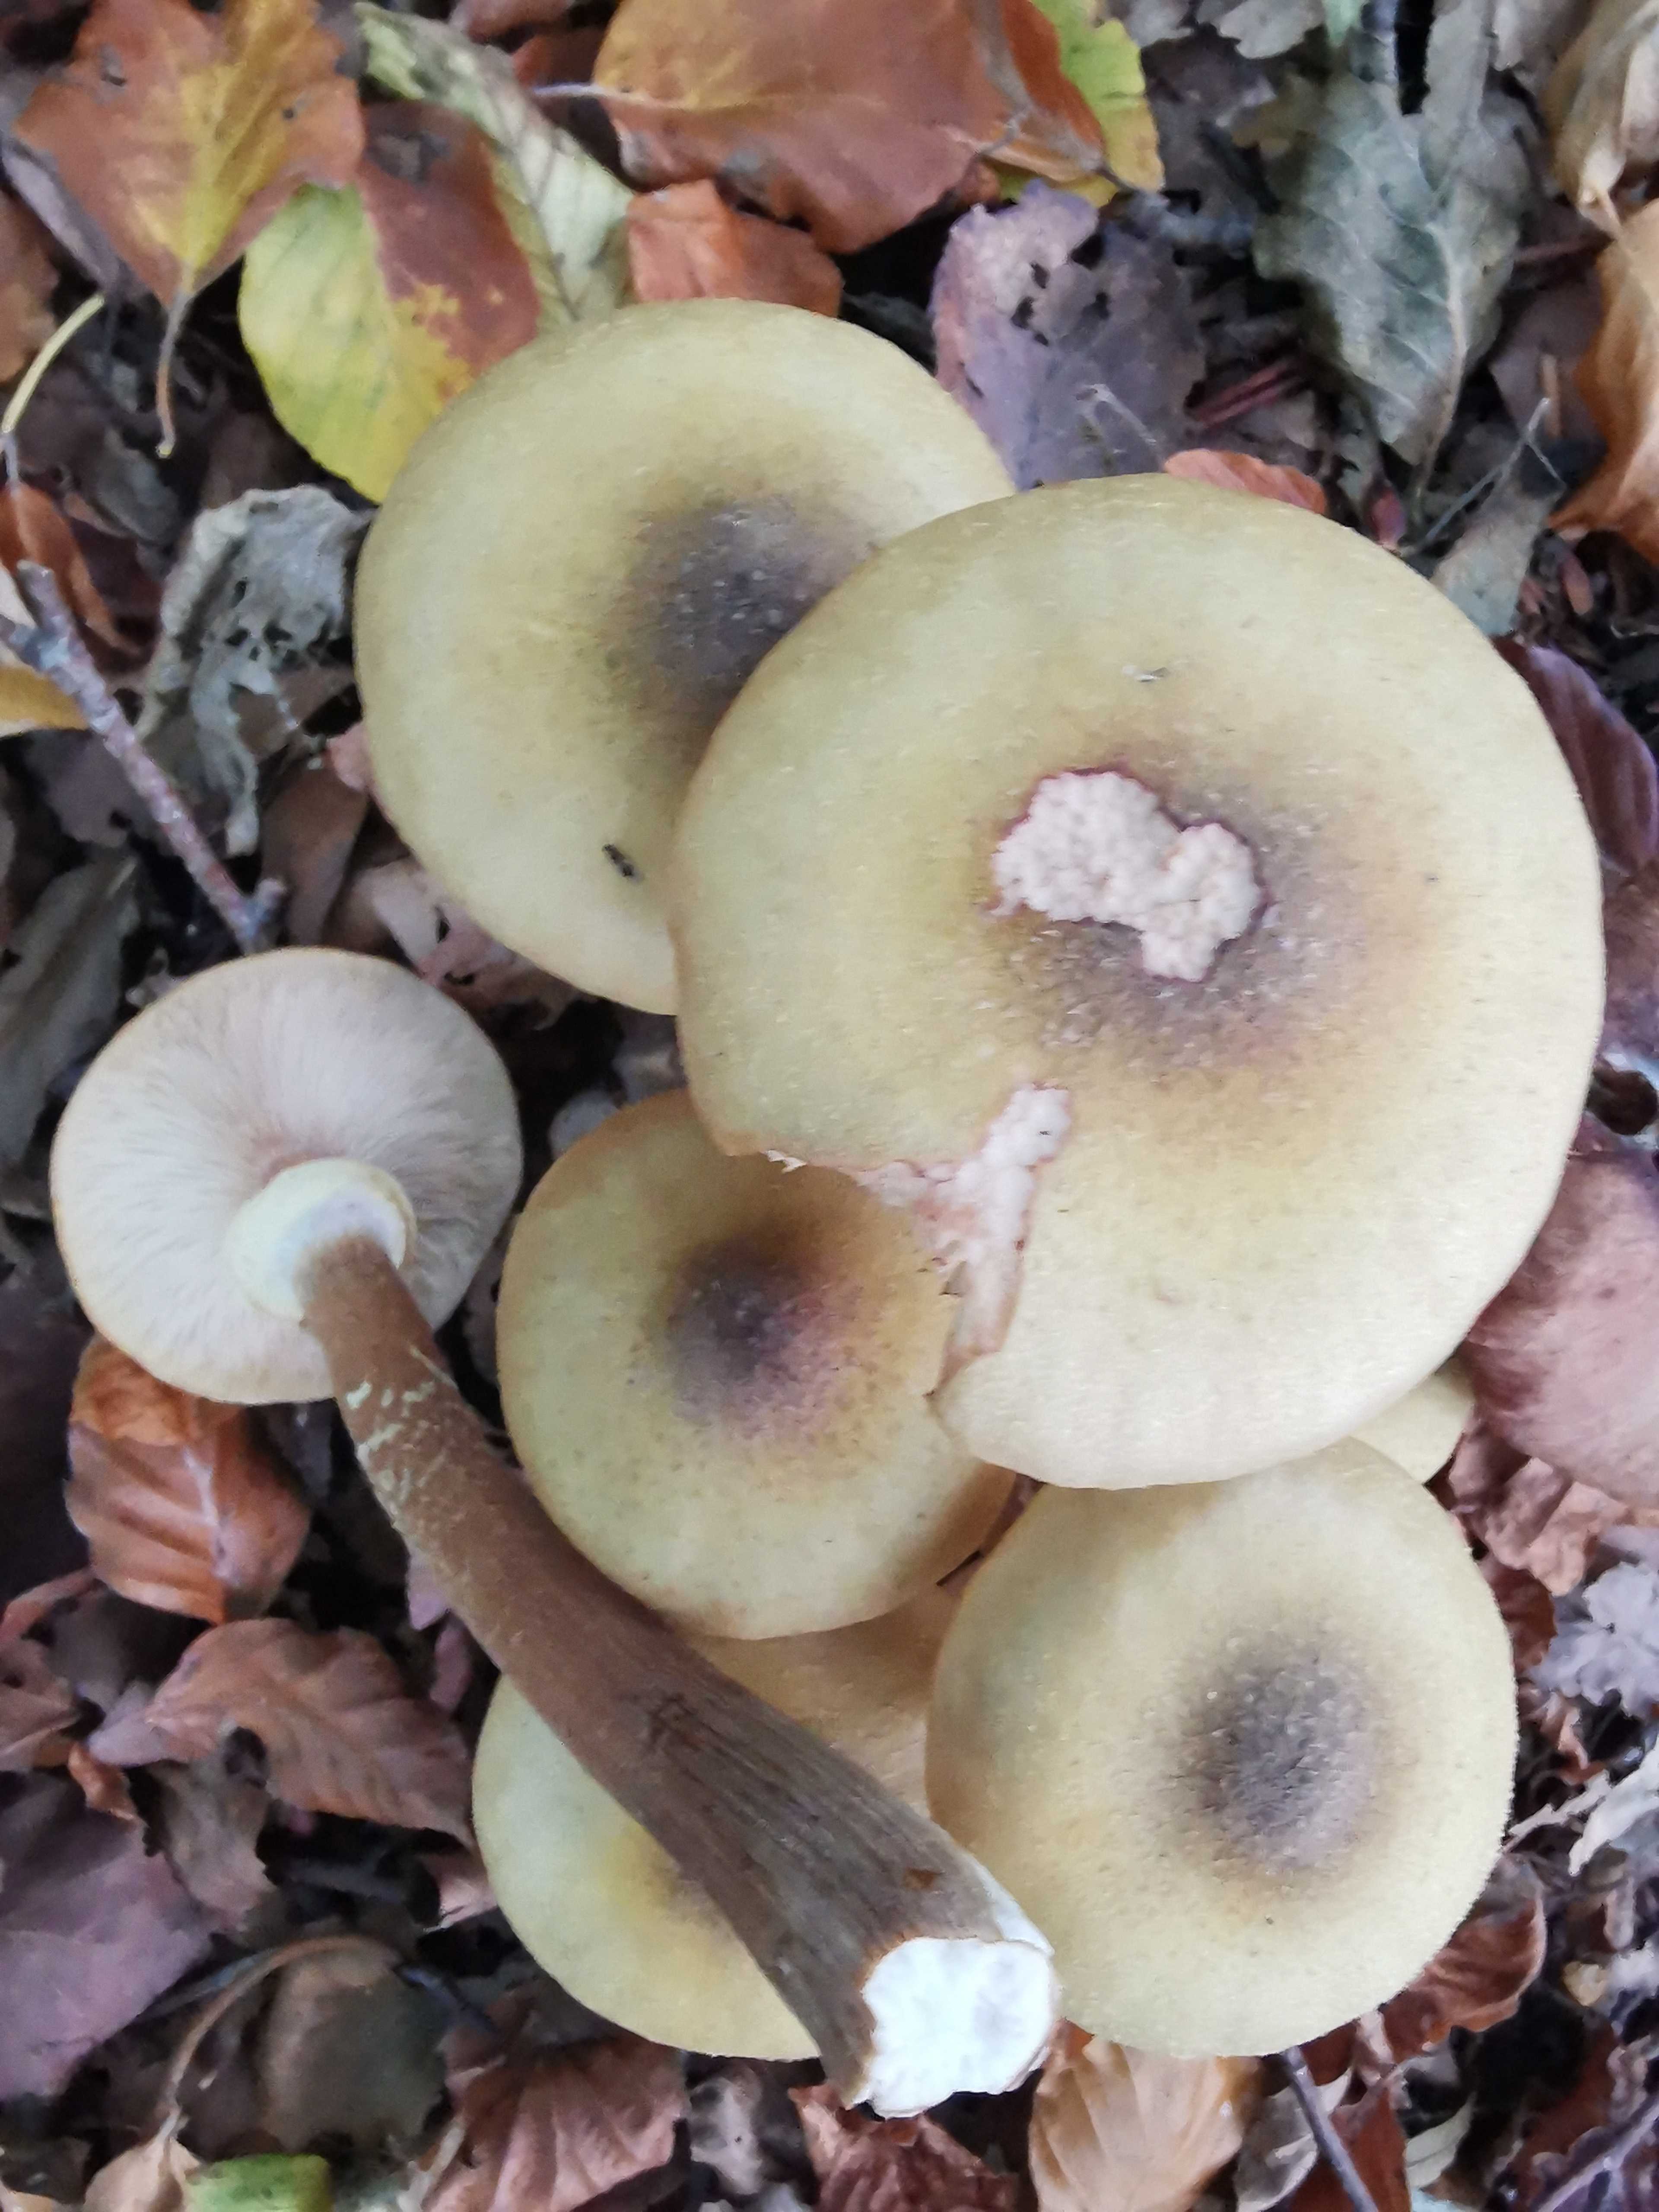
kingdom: Fungi
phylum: Basidiomycota
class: Agaricomycetes
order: Agaricales
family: Physalacriaceae
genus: Armillaria
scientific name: Armillaria mellea
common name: ægte honningsvamp
